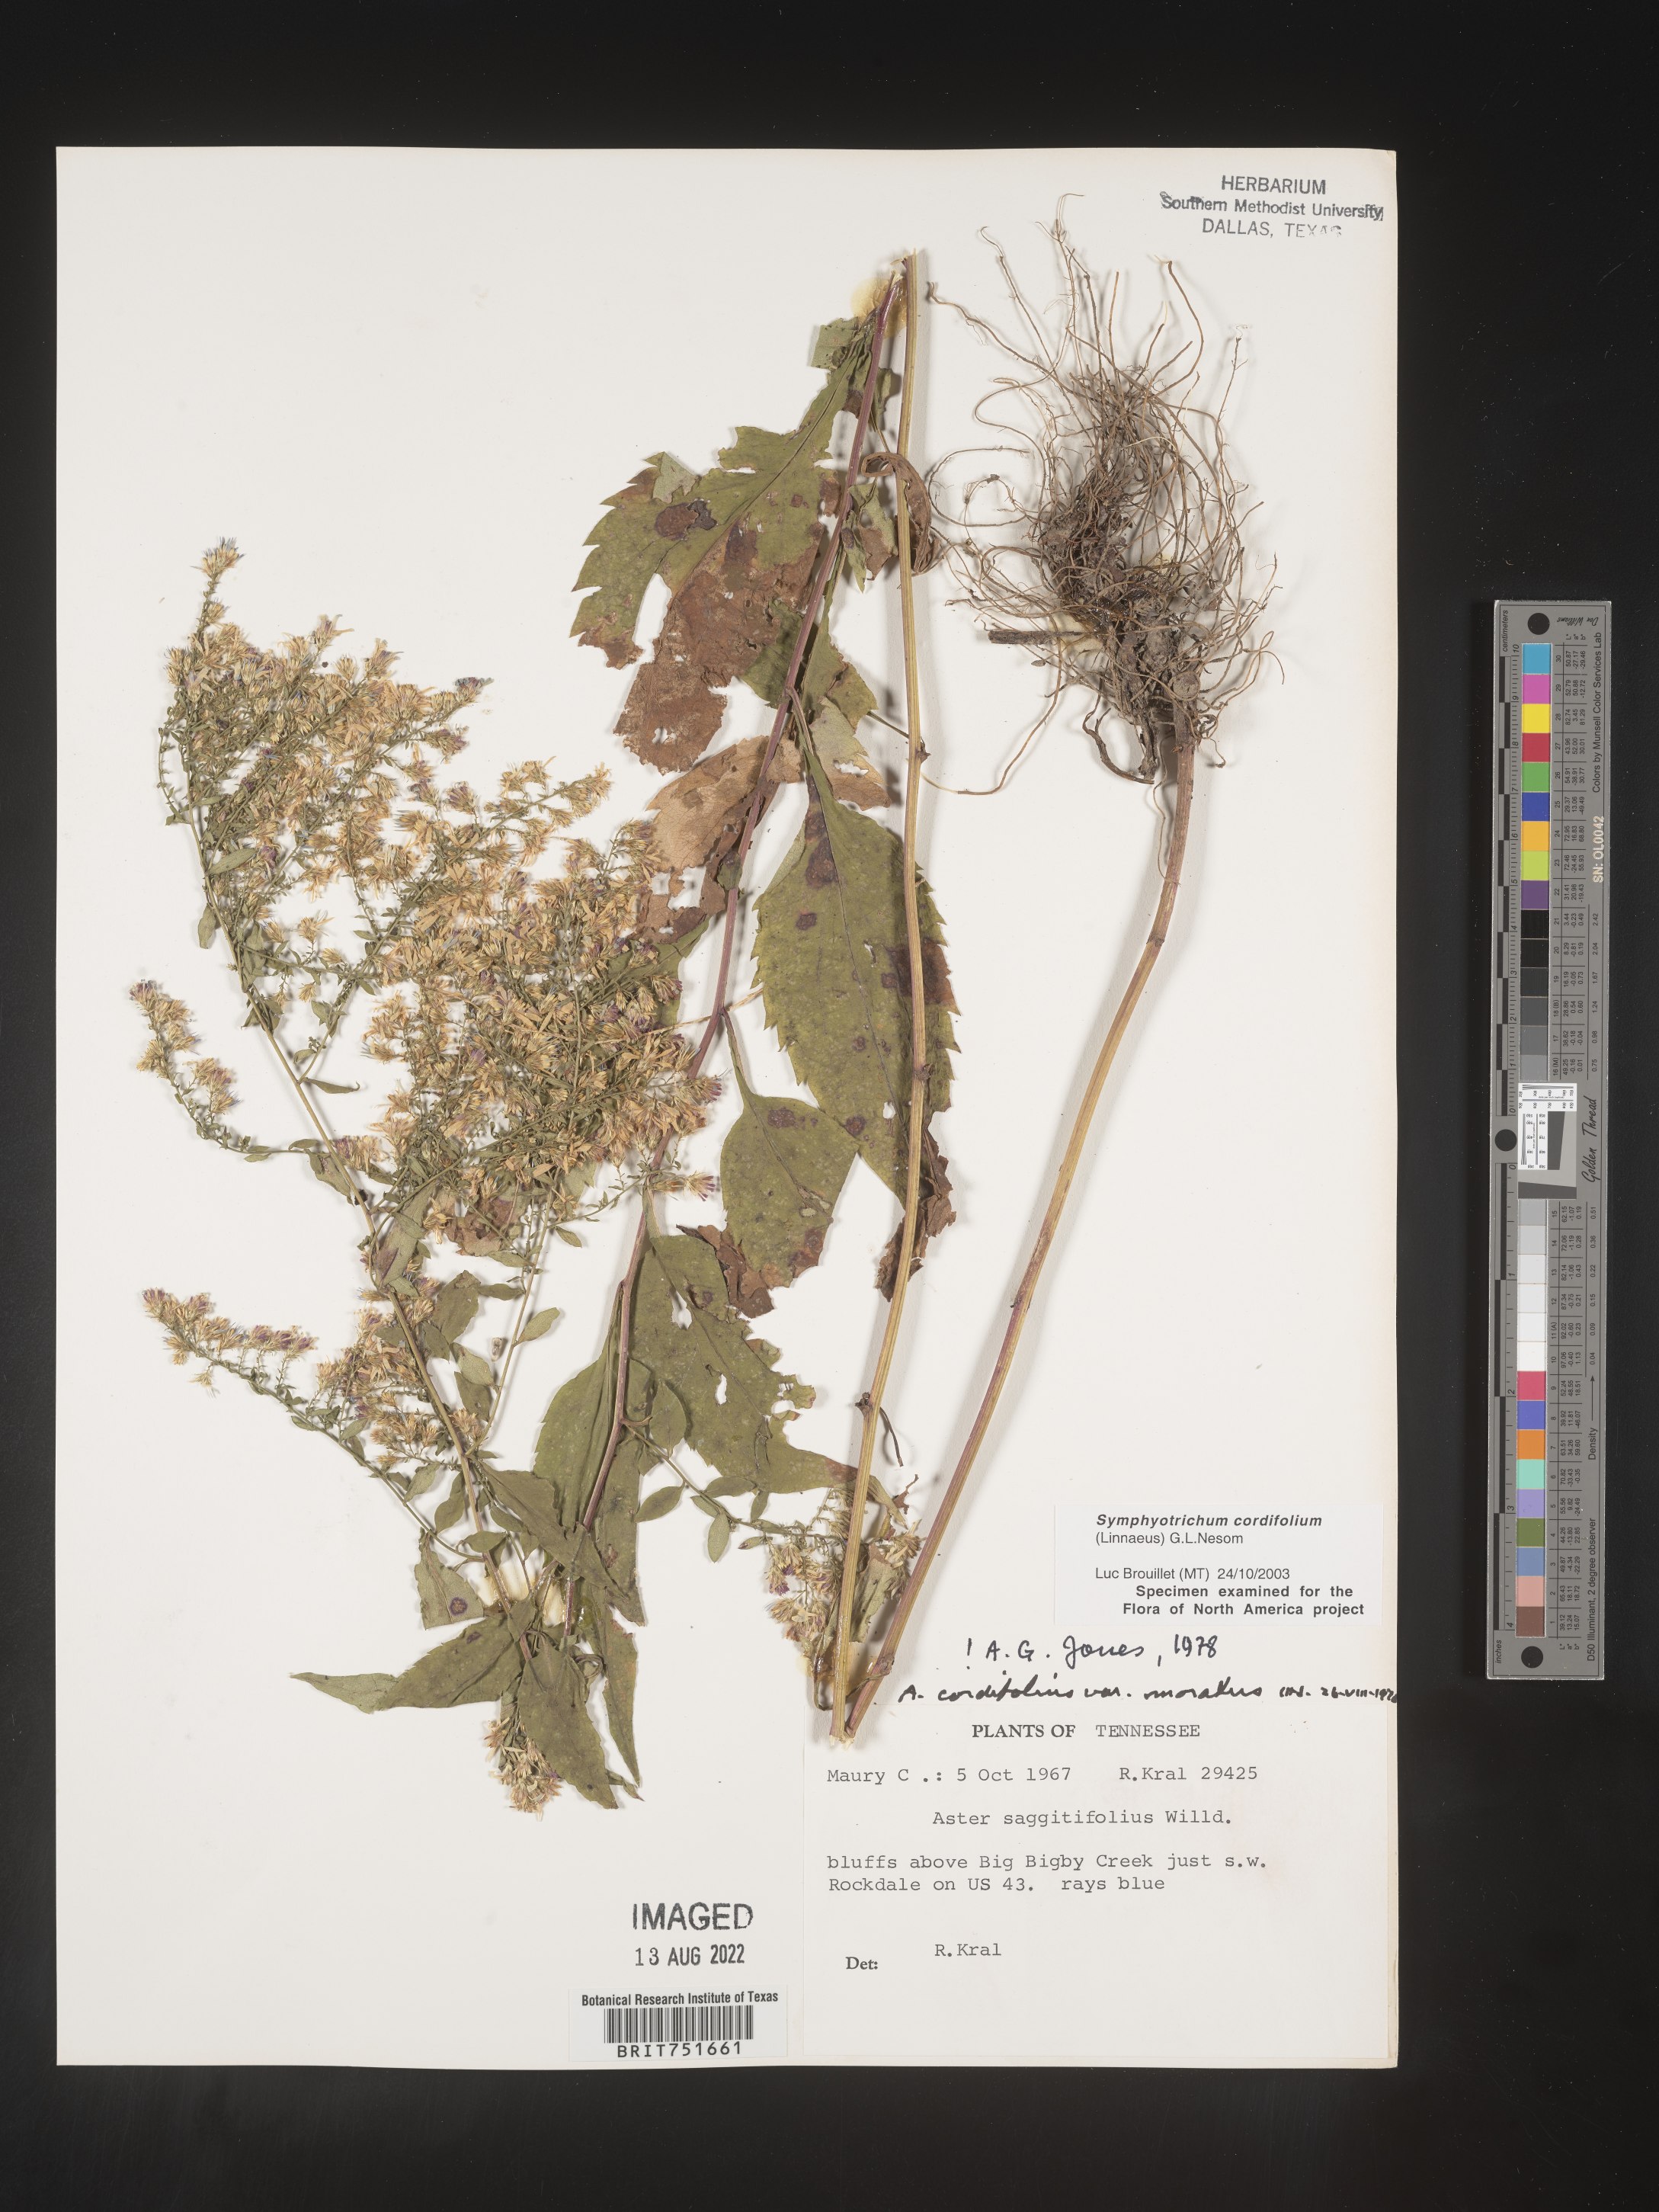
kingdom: Plantae
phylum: Tracheophyta
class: Magnoliopsida
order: Asterales
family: Asteraceae
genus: Symphyotrichum
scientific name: Symphyotrichum cordifolium
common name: Beeweed
